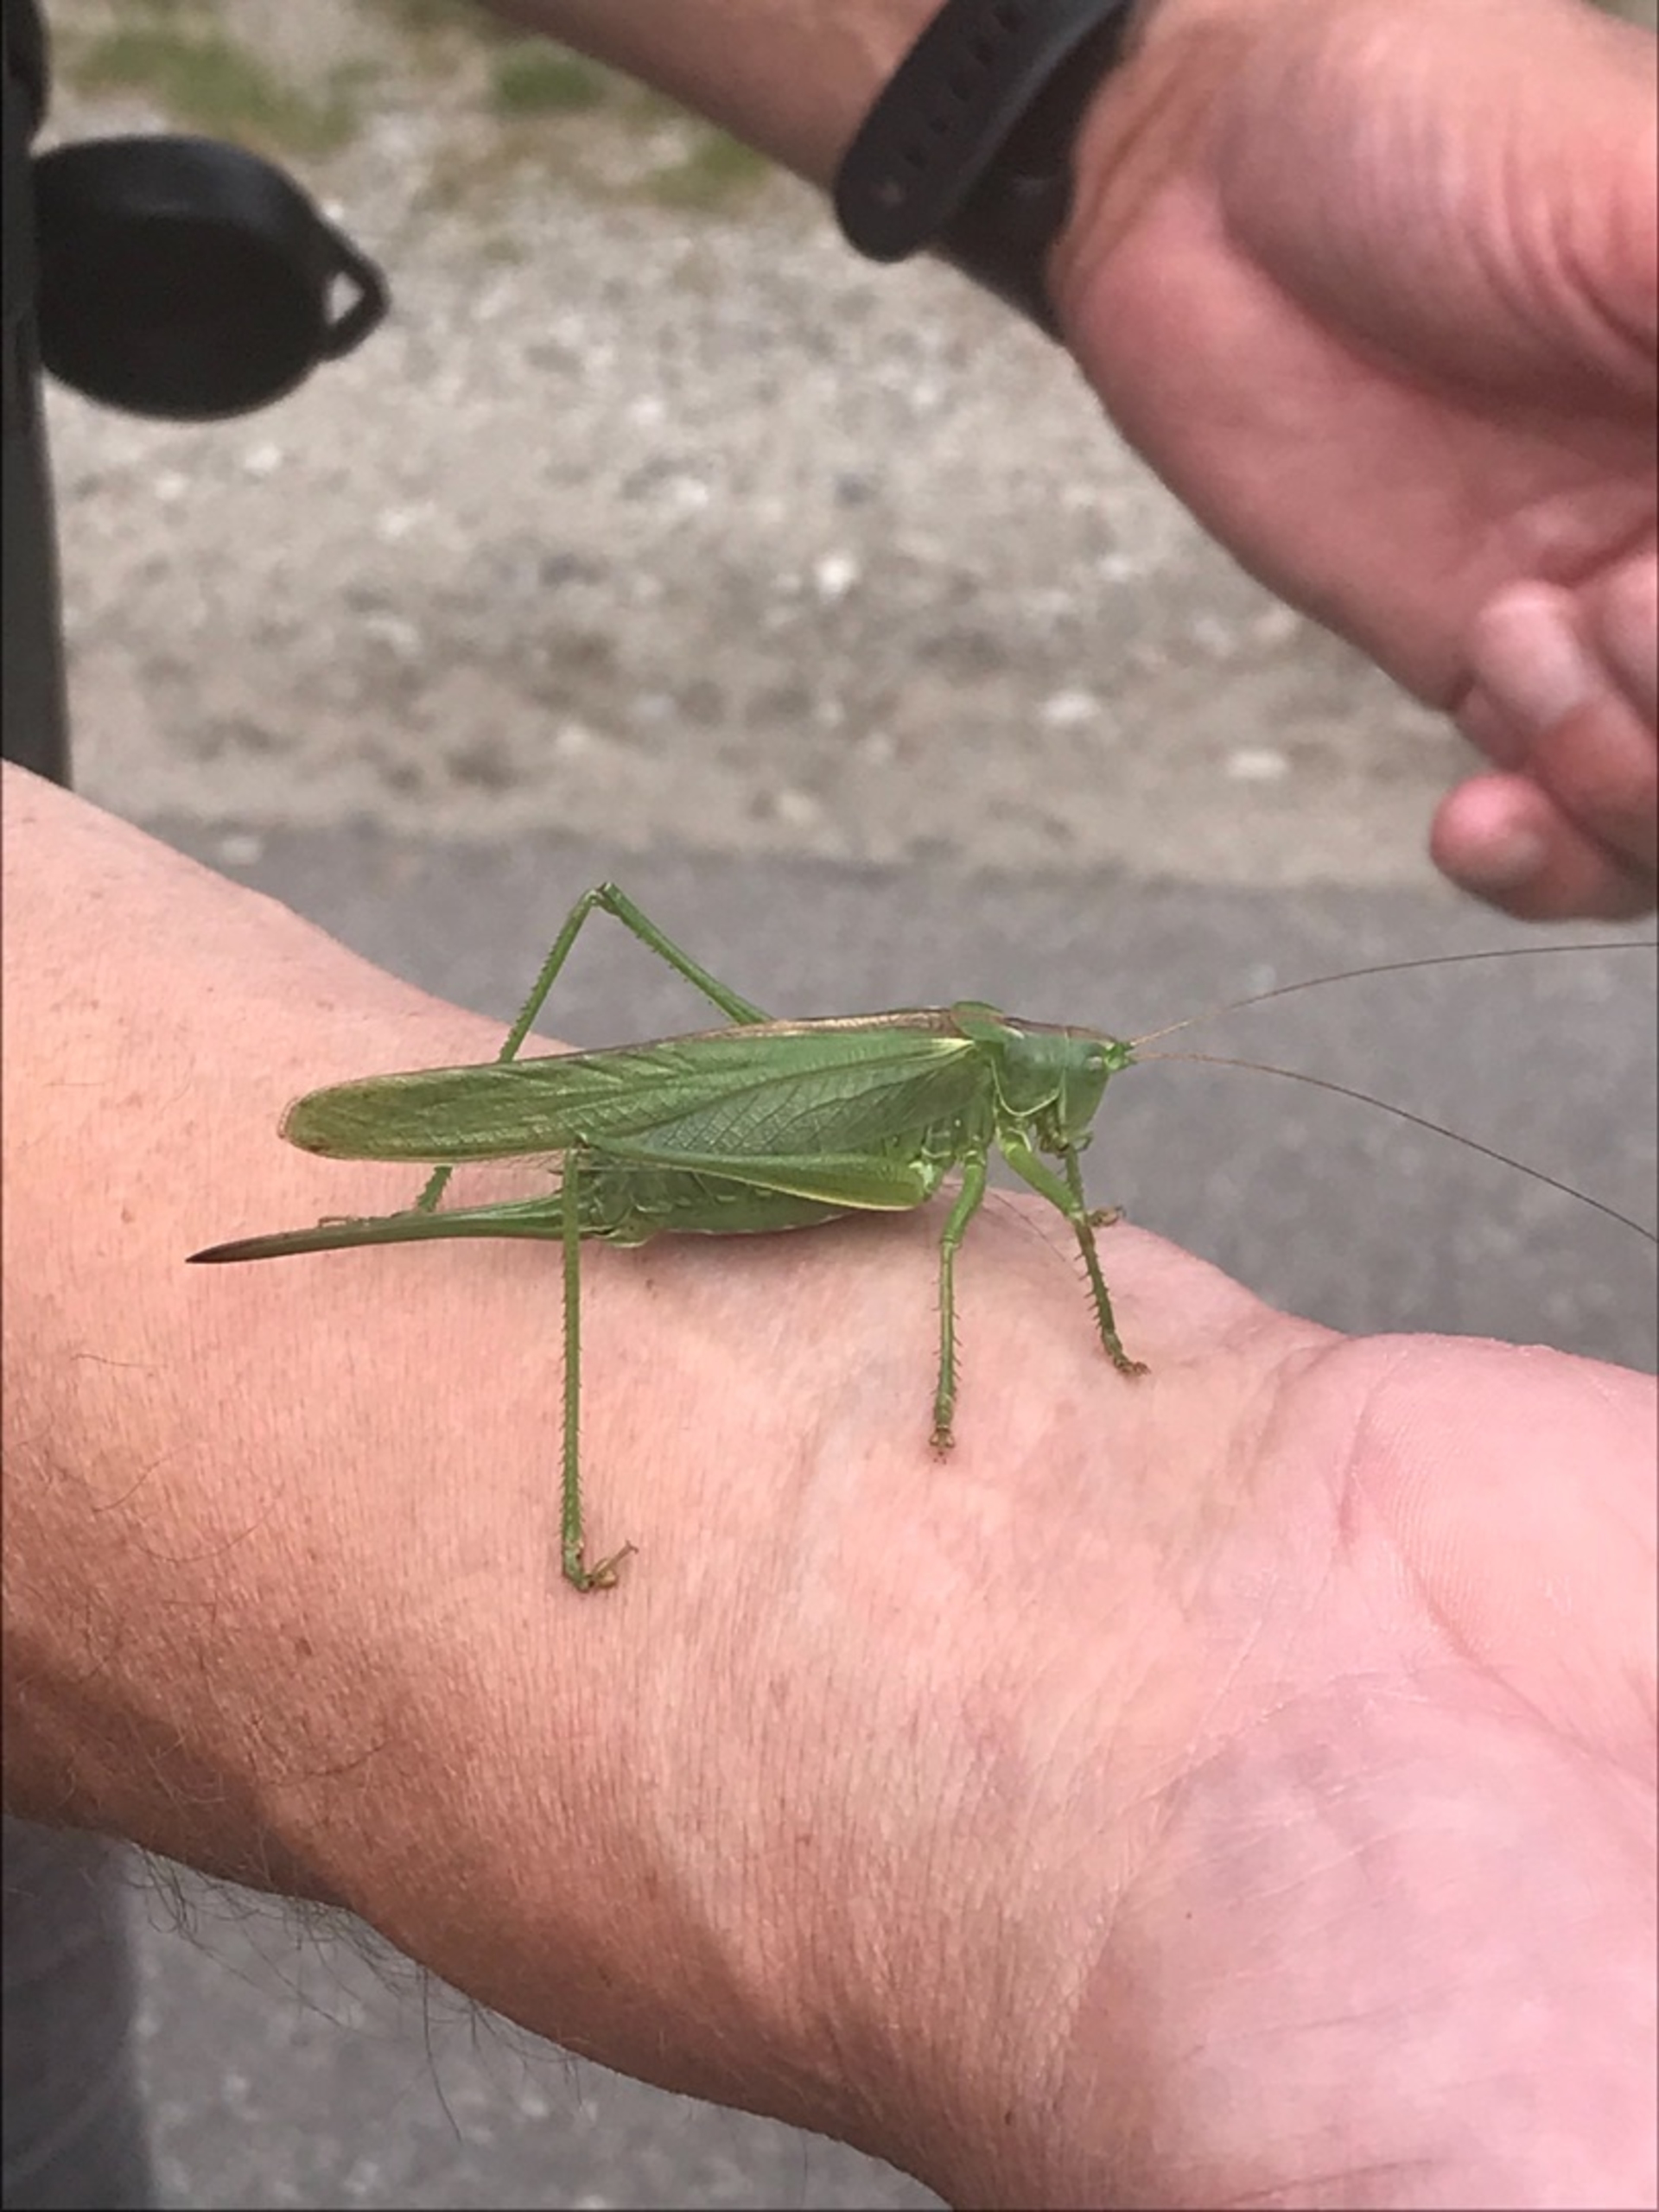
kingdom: Animalia
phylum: Arthropoda
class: Insecta
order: Orthoptera
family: Tettigoniidae
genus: Tettigonia
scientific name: Tettigonia viridissima
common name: Stor grøn løvgræshoppe
